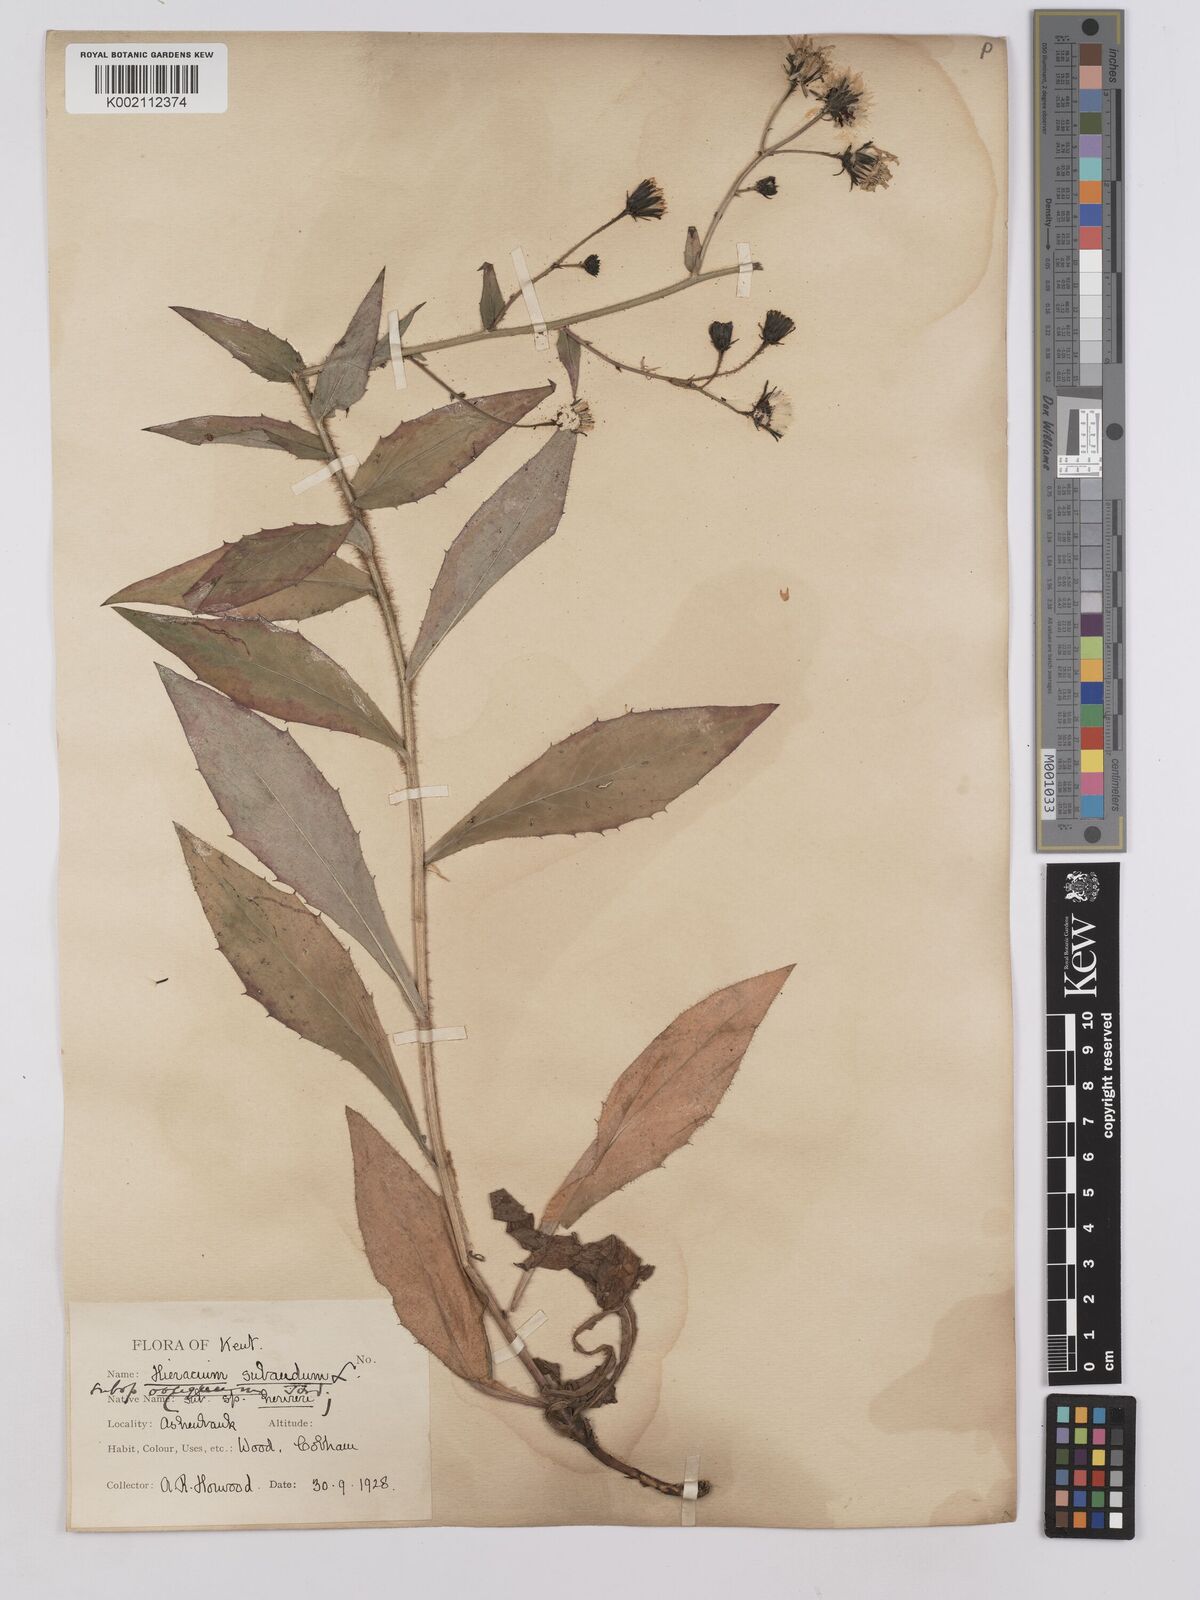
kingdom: Plantae
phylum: Tracheophyta
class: Magnoliopsida
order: Asterales
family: Asteraceae
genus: Hieracium
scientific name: Hieracium sabaudum
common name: New england hawkweed
